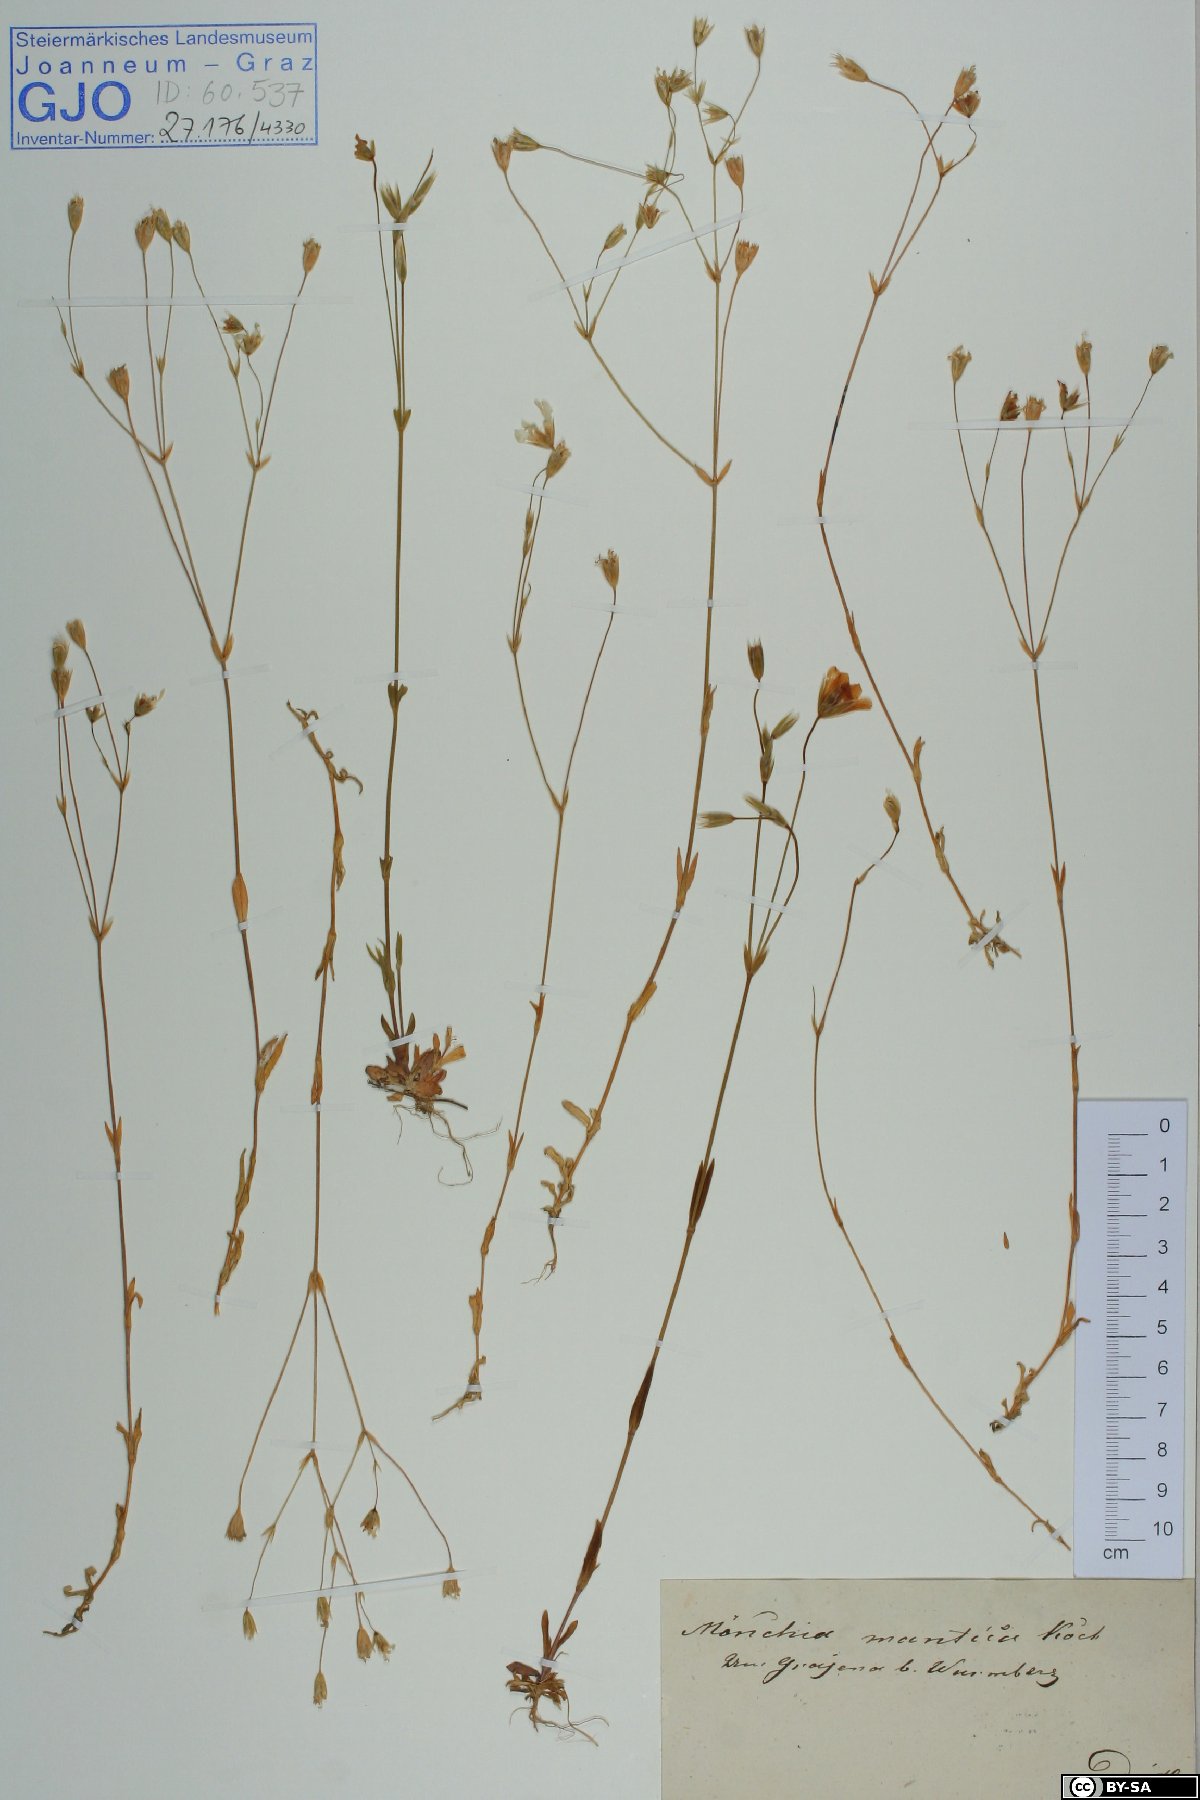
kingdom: Plantae
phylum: Tracheophyta
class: Magnoliopsida
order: Caryophyllales
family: Caryophyllaceae
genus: Moenchia
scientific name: Moenchia mantica
